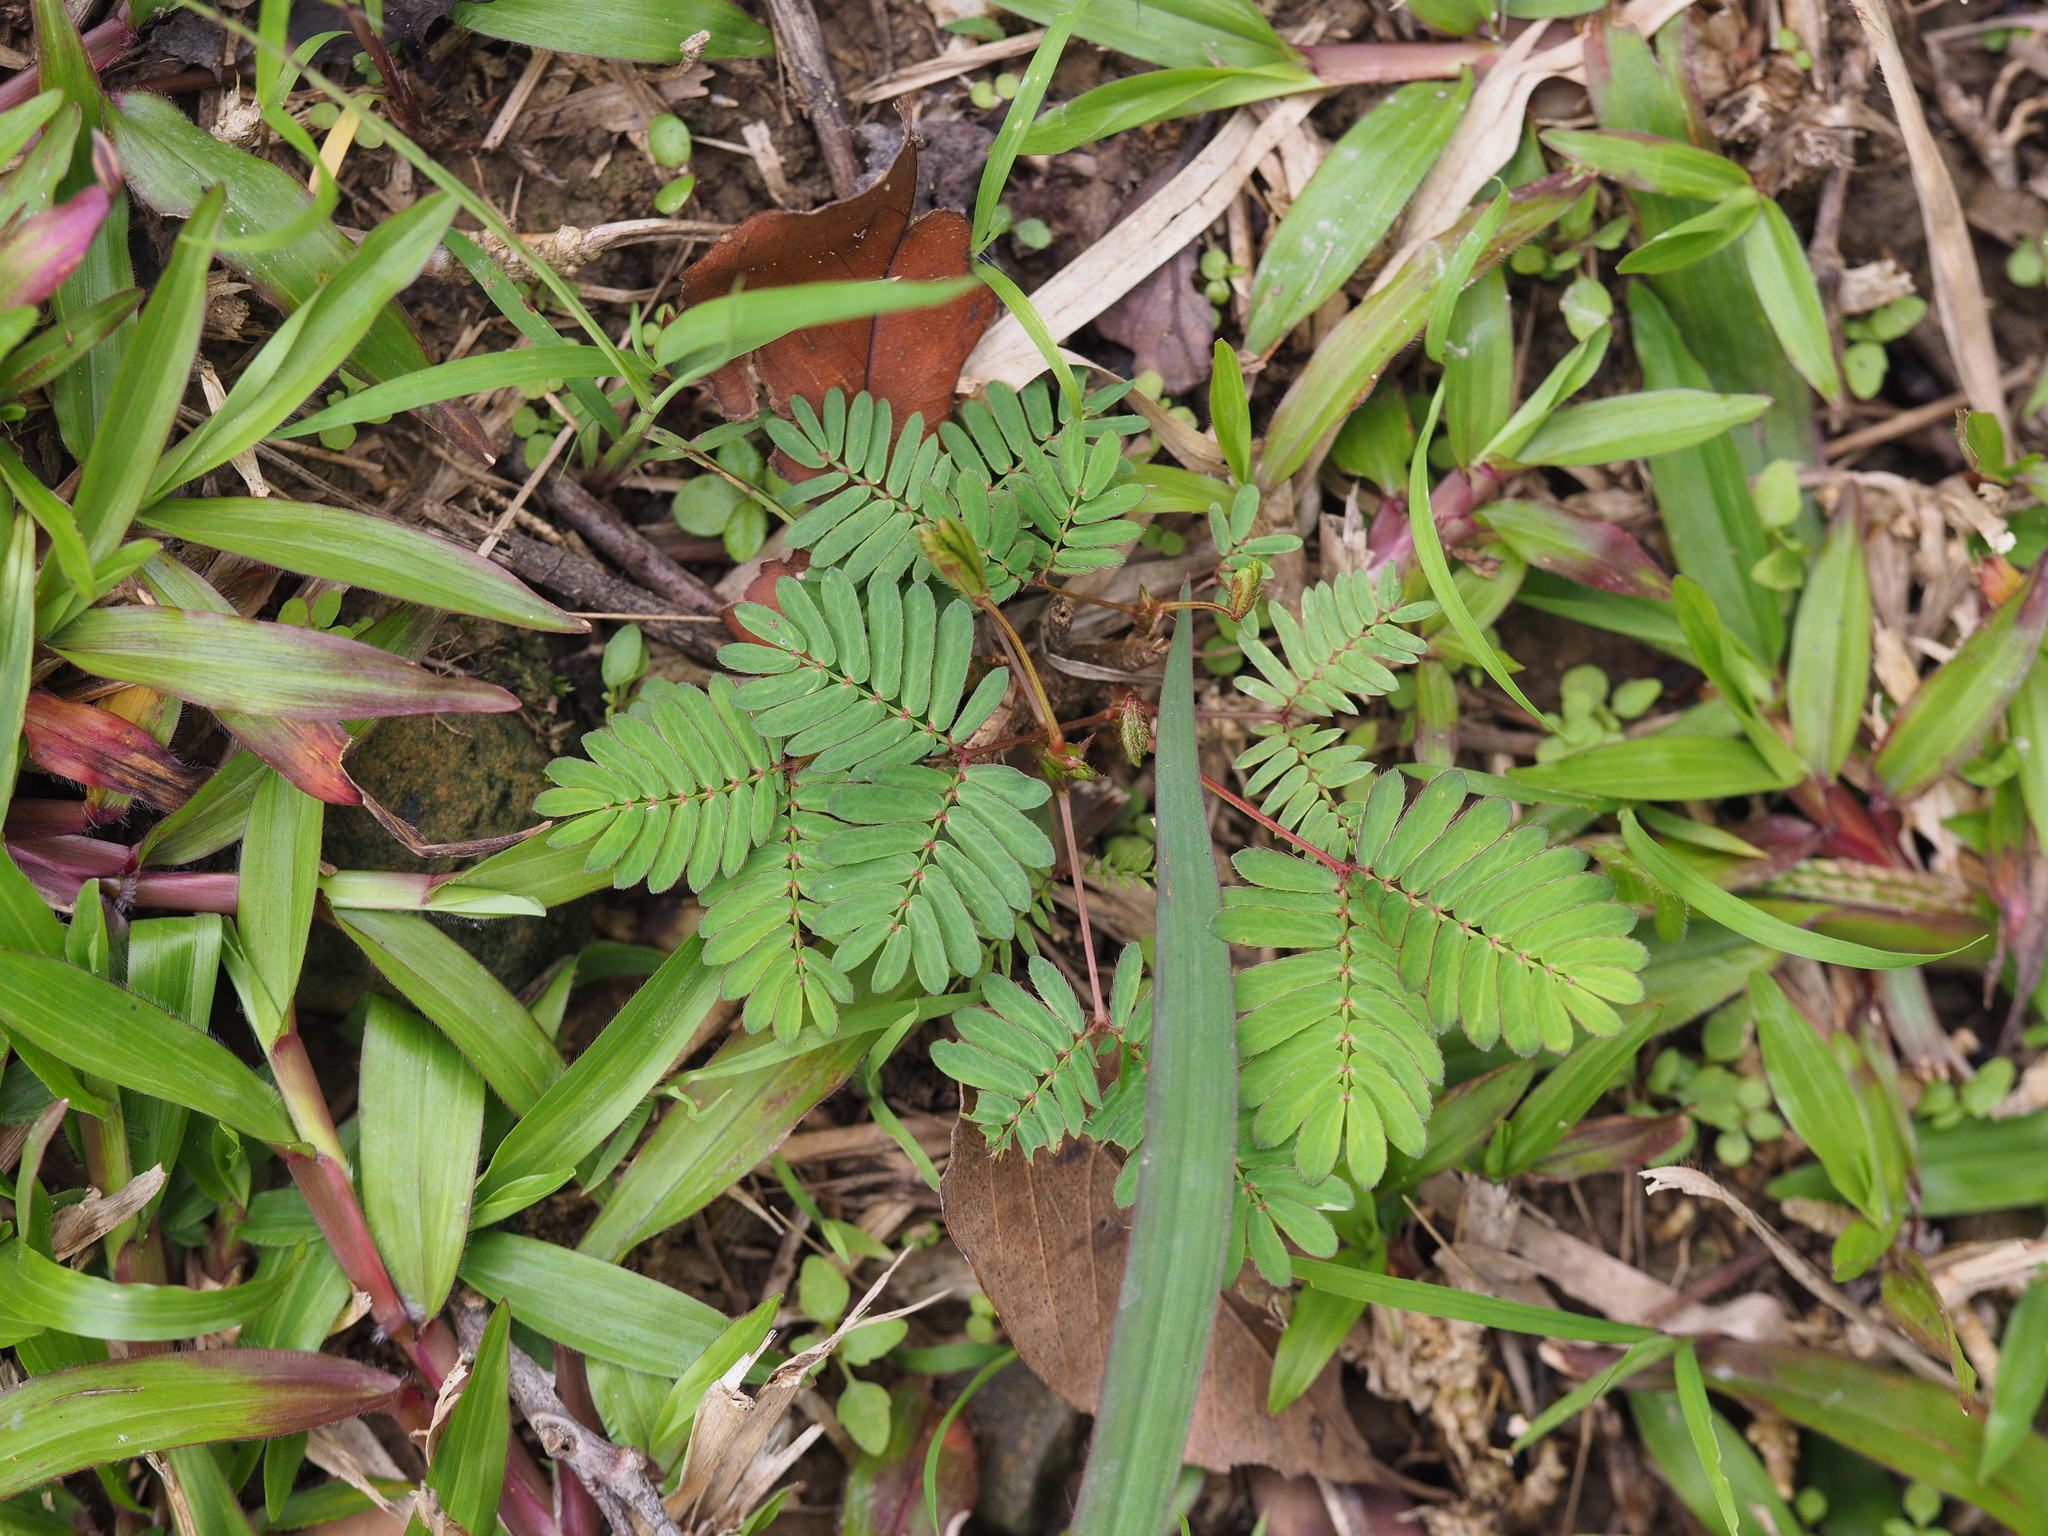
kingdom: Plantae
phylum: Tracheophyta
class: Magnoliopsida
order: Fabales
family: Fabaceae
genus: Mimosa
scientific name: Mimosa pudica
